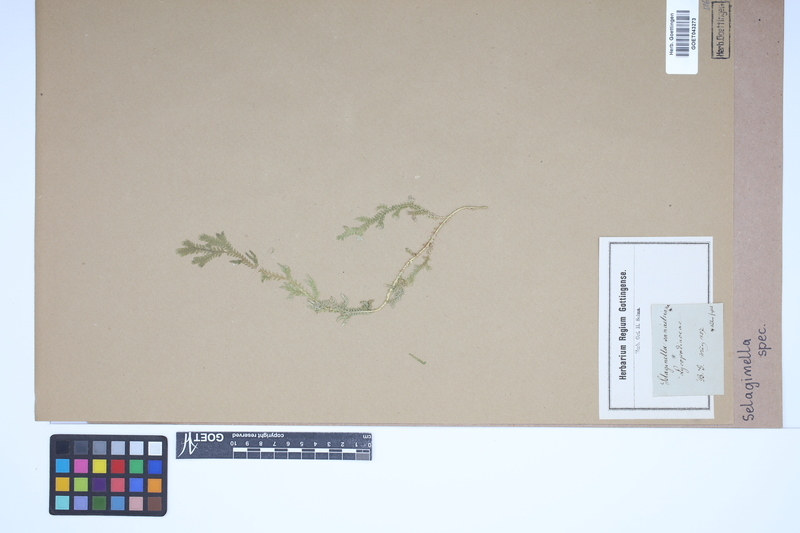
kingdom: Plantae
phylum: Tracheophyta
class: Lycopodiopsida
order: Selaginellales
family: Selaginellaceae
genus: Selaginella
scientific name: Selaginella
